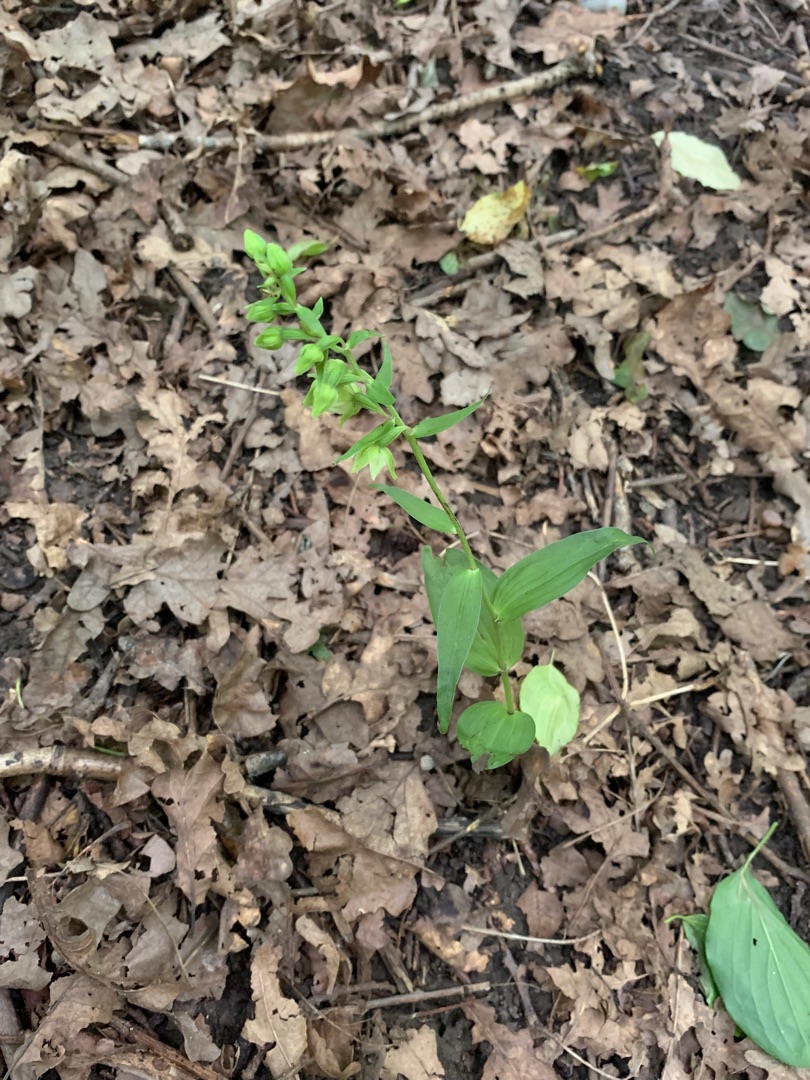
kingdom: Plantae
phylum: Tracheophyta
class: Liliopsida
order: Asparagales
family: Orchidaceae
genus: Epipactis
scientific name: Epipactis helleborine
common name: Skov-hullæbe
